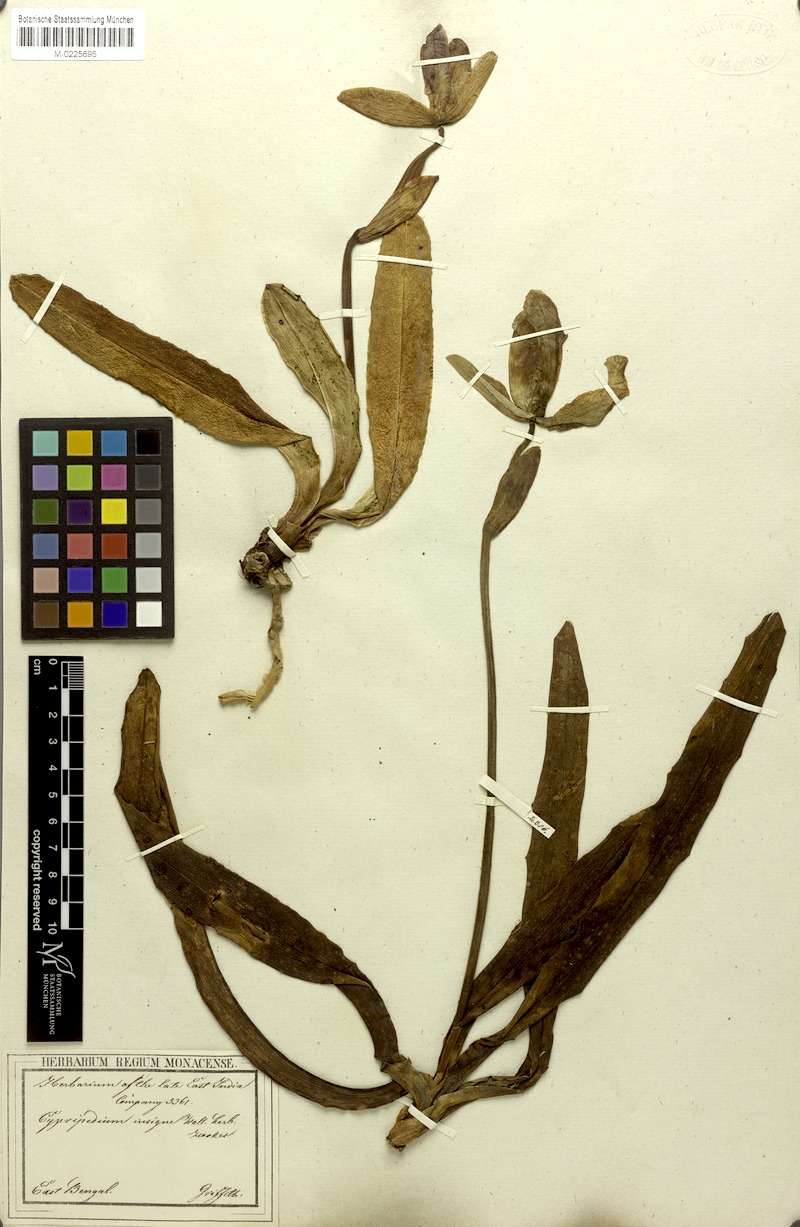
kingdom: Plantae
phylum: Tracheophyta
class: Liliopsida
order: Asparagales
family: Orchidaceae
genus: Paphiopedilum
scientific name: Paphiopedilum insigne
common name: Splendid paphiopedilum
